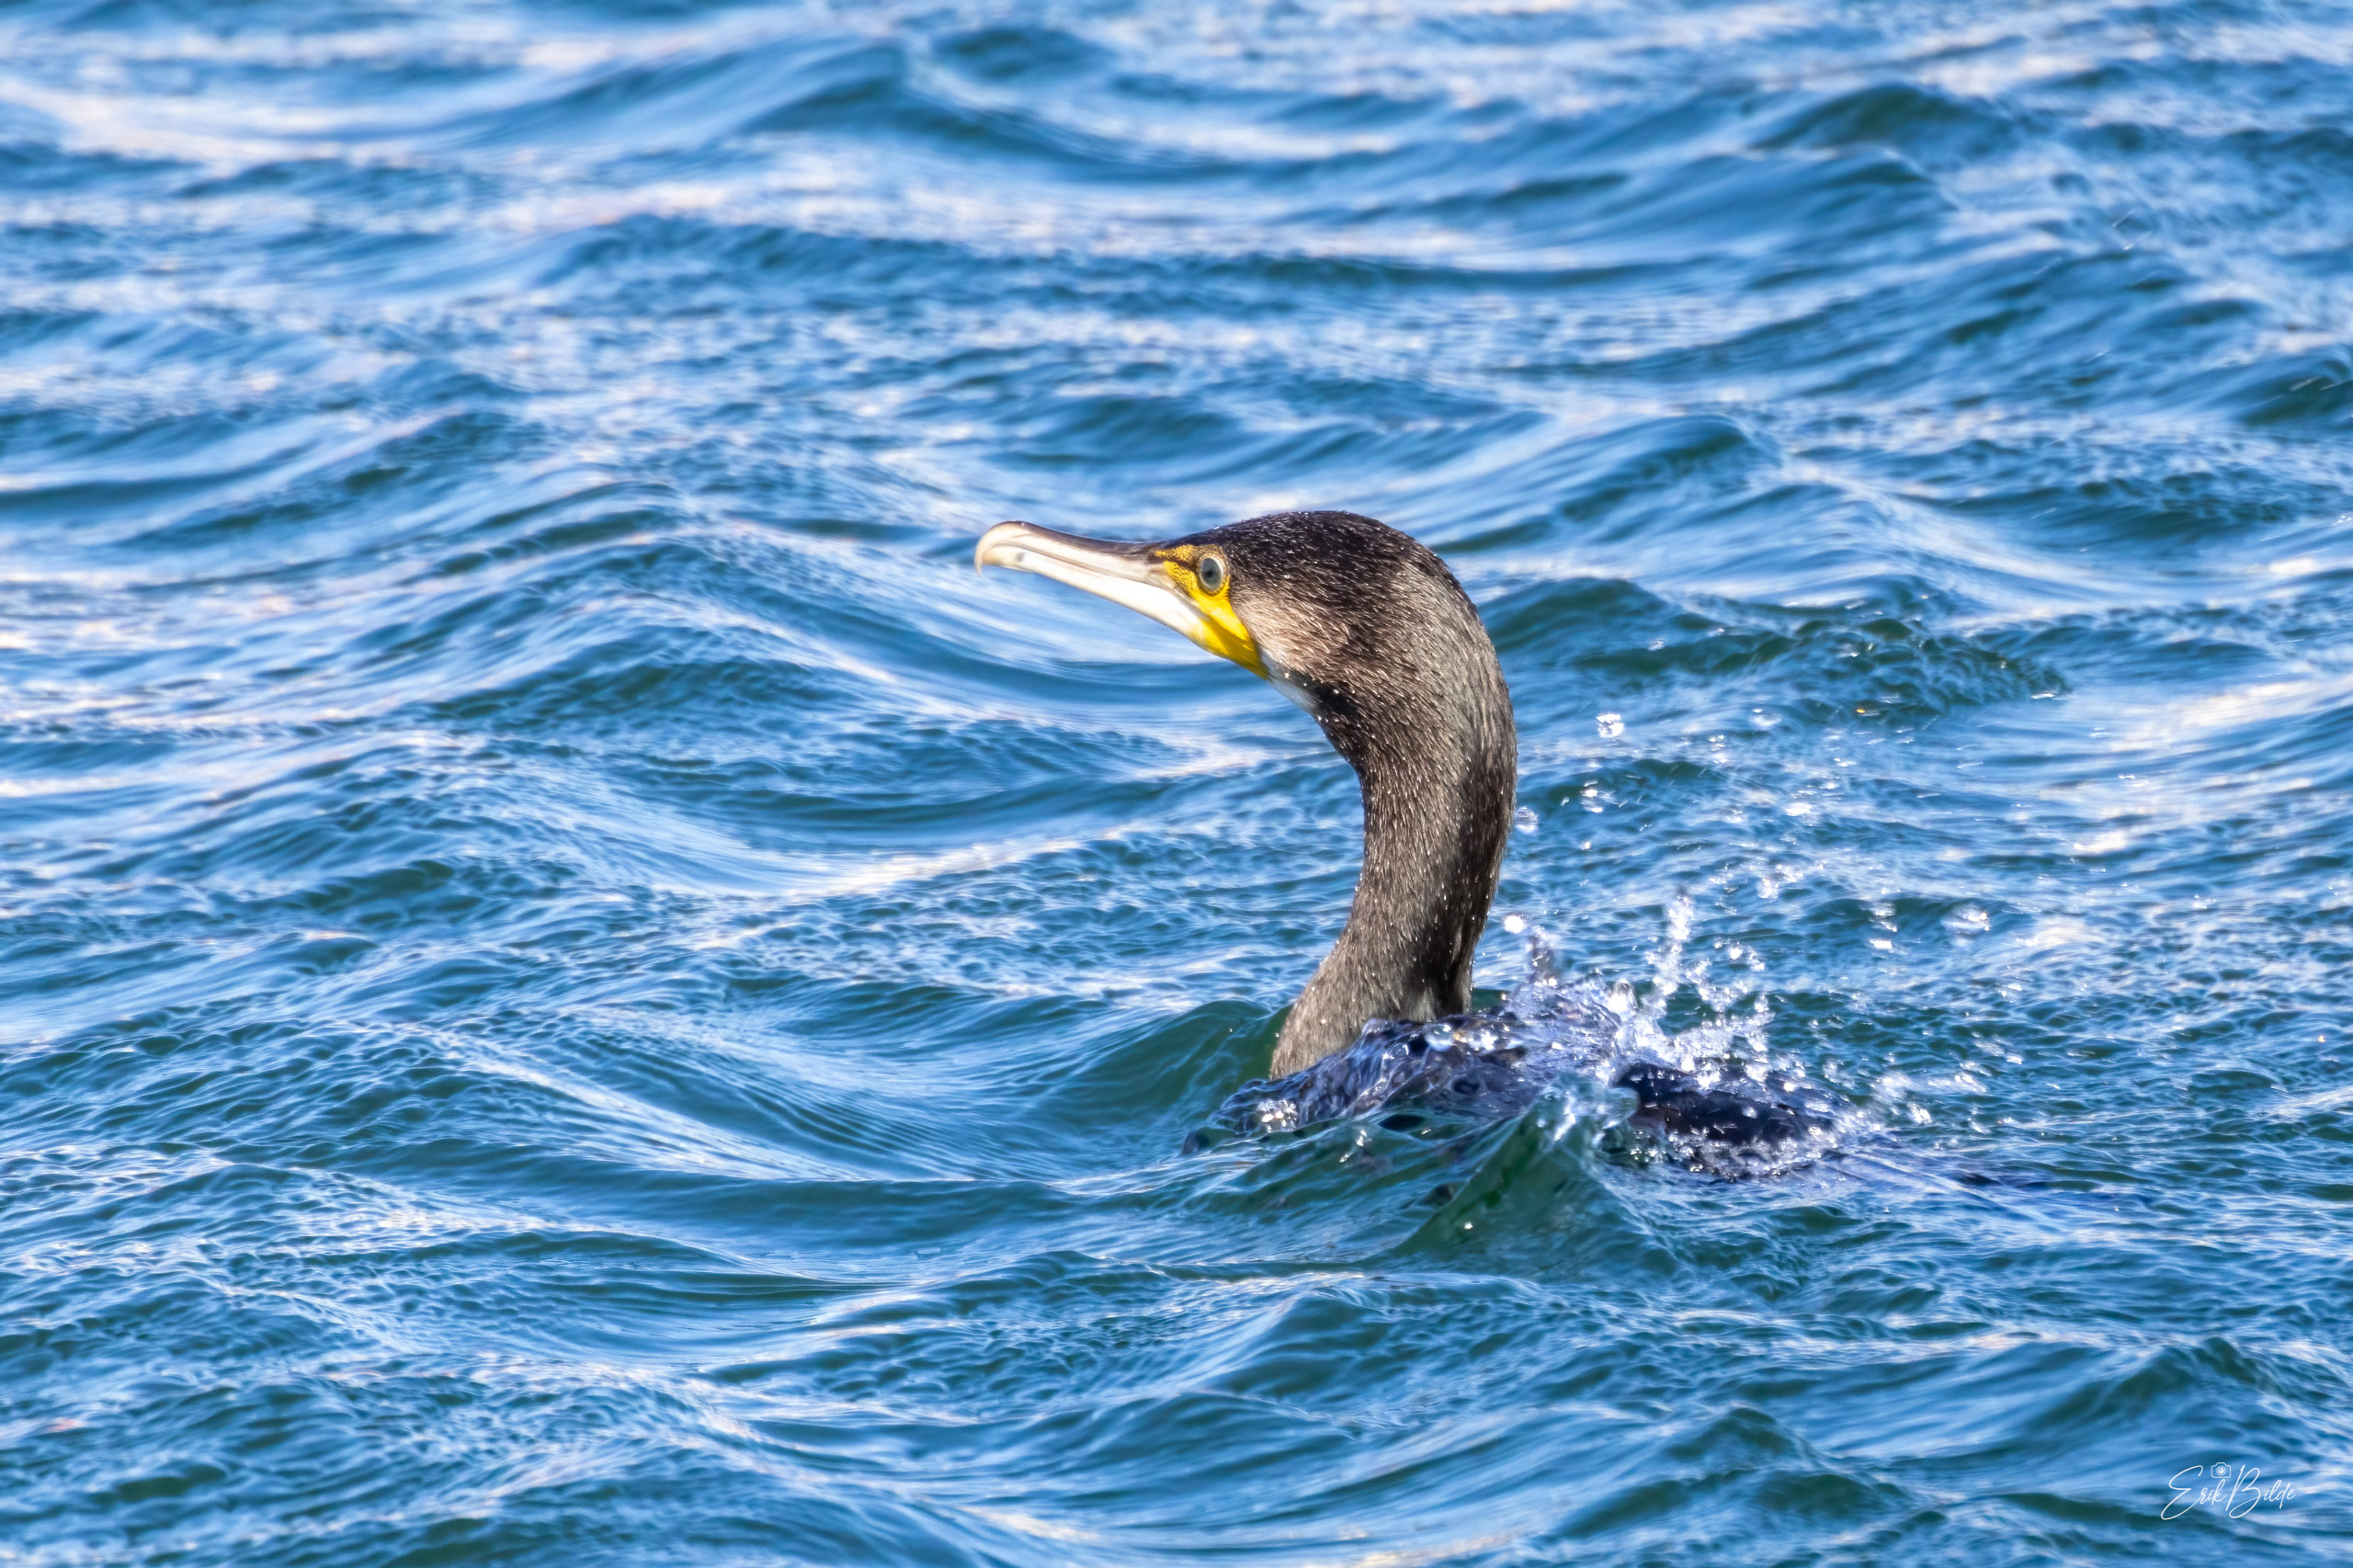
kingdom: Animalia
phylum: Chordata
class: Aves
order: Suliformes
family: Phalacrocoracidae
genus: Phalacrocorax
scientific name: Phalacrocorax carbo
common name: Skarv
